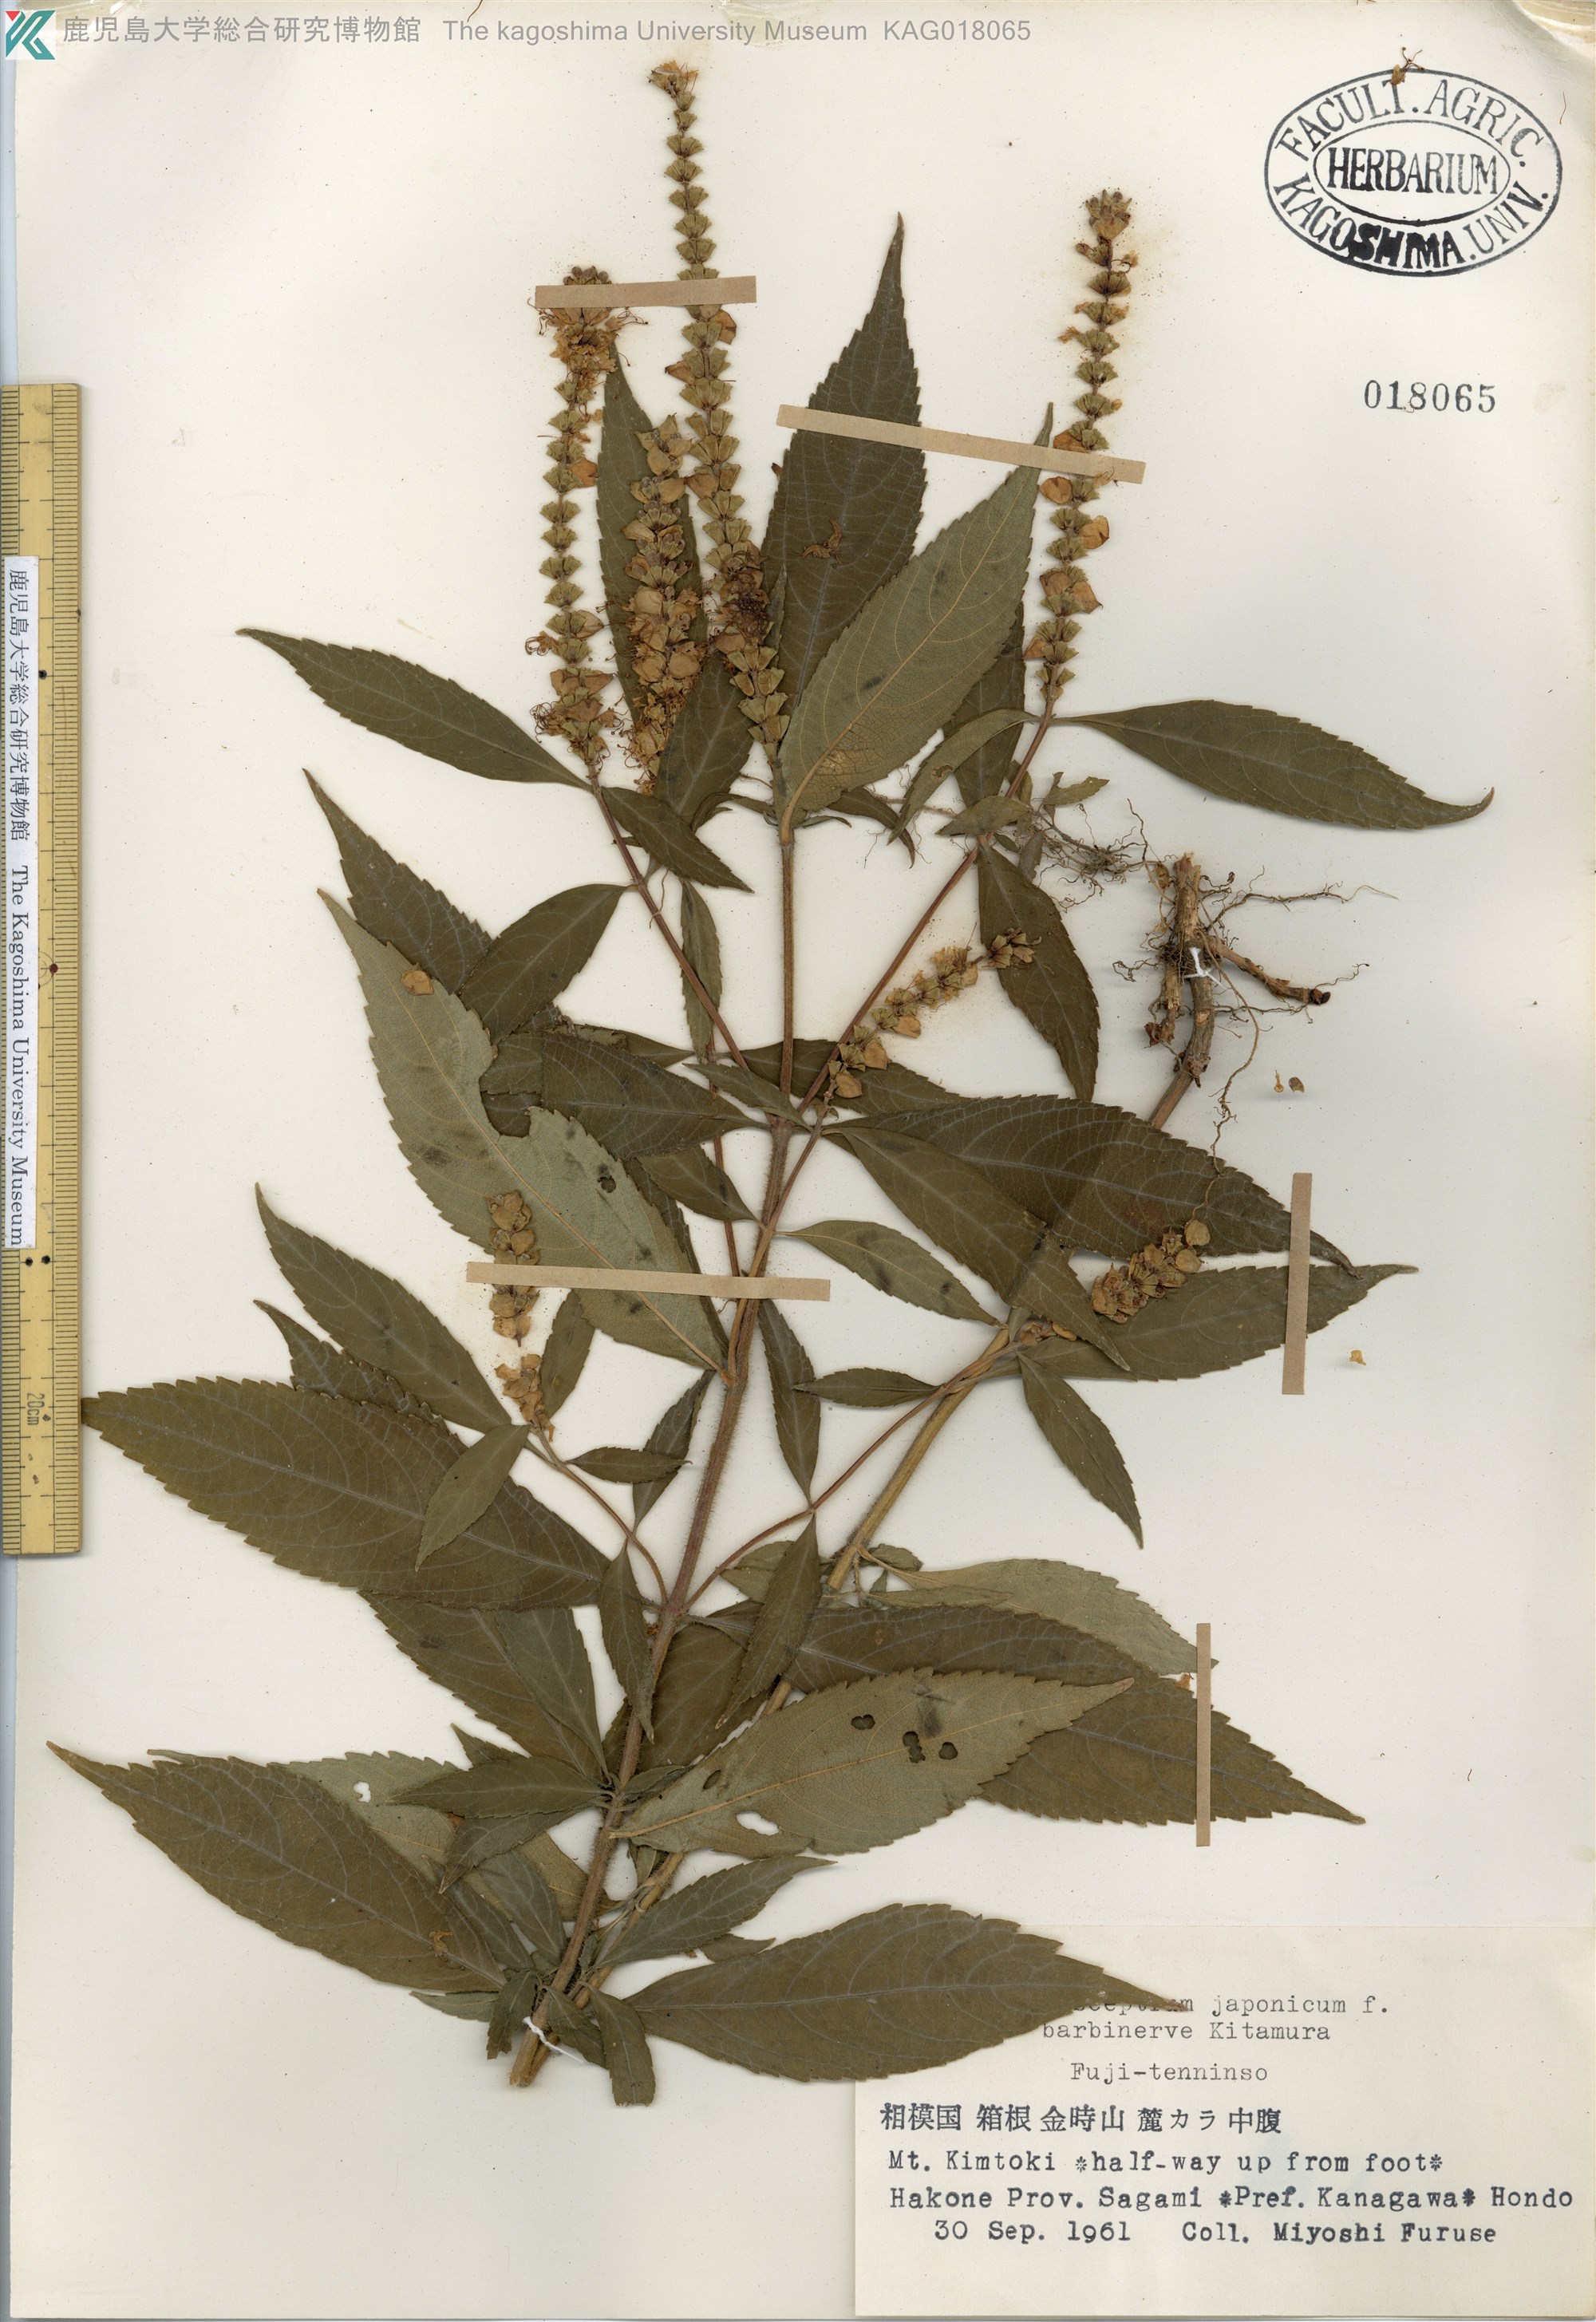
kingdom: Plantae
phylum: Tracheophyta
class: Magnoliopsida
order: Lamiales
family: Lamiaceae
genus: Comanthosphace
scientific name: Comanthosphace japonica
